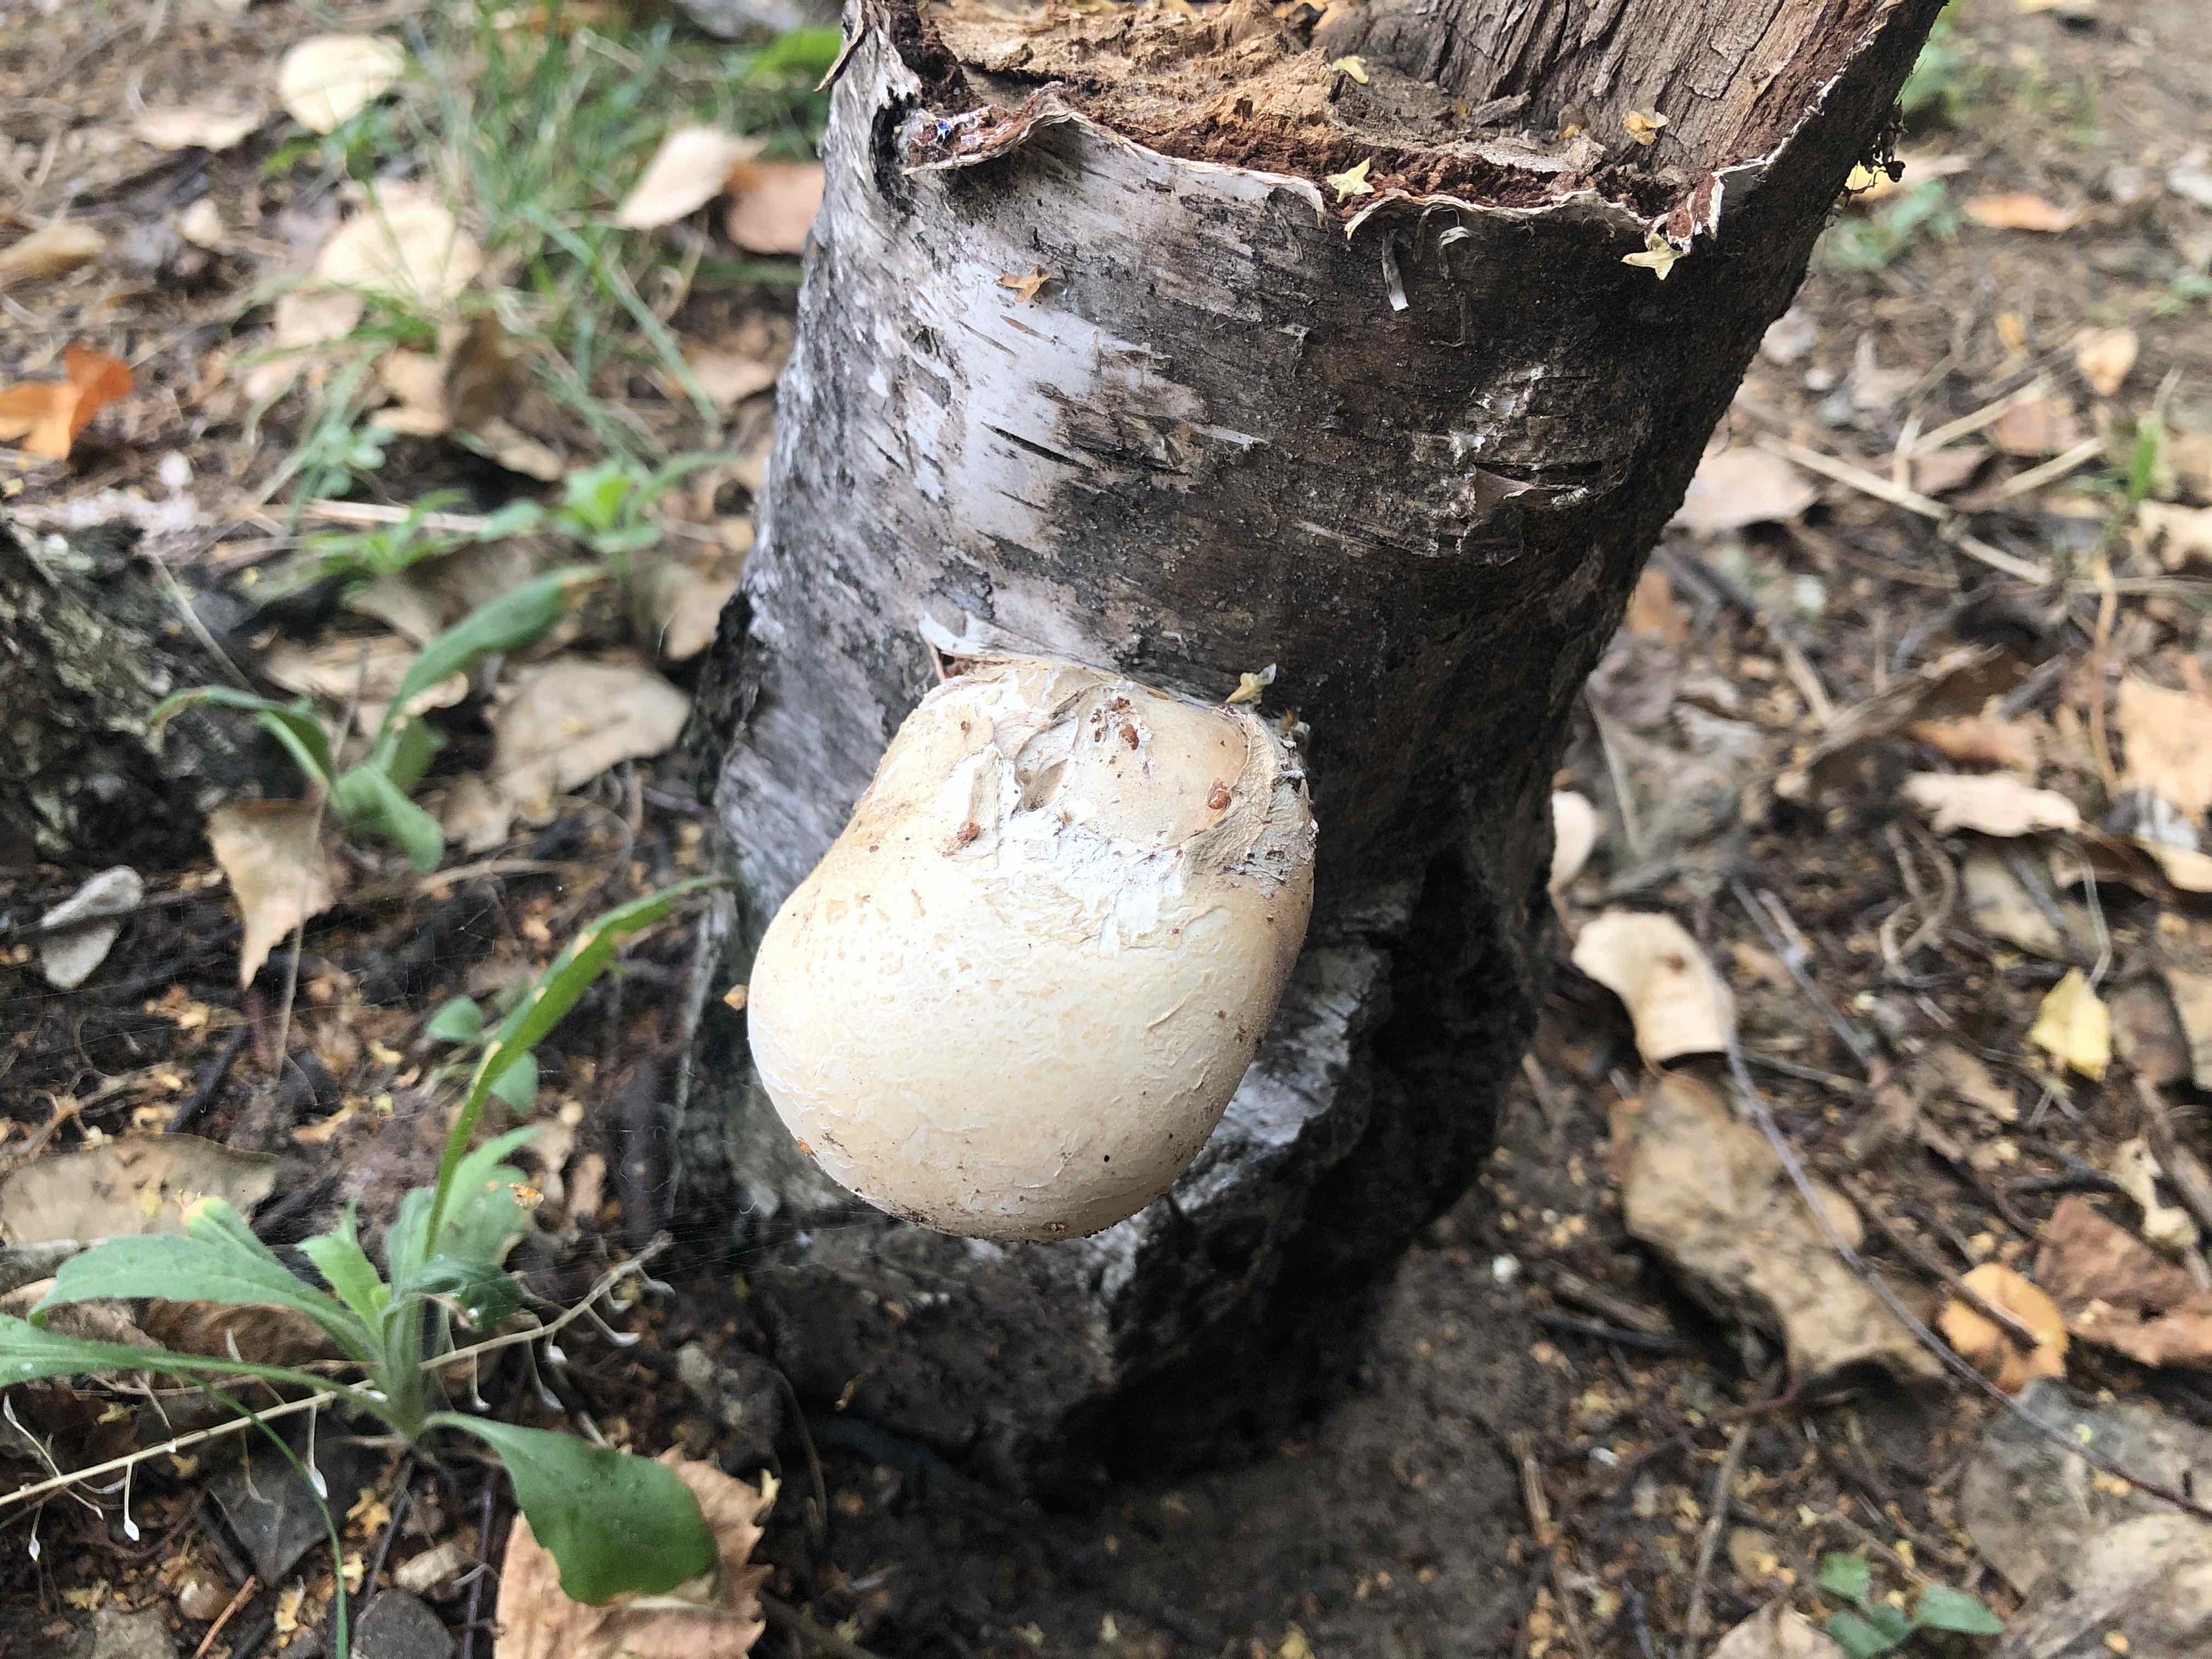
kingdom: Fungi
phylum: Basidiomycota
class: Agaricomycetes
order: Polyporales
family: Fomitopsidaceae
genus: Fomitopsis
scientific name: Fomitopsis betulina
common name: birkeporesvamp
